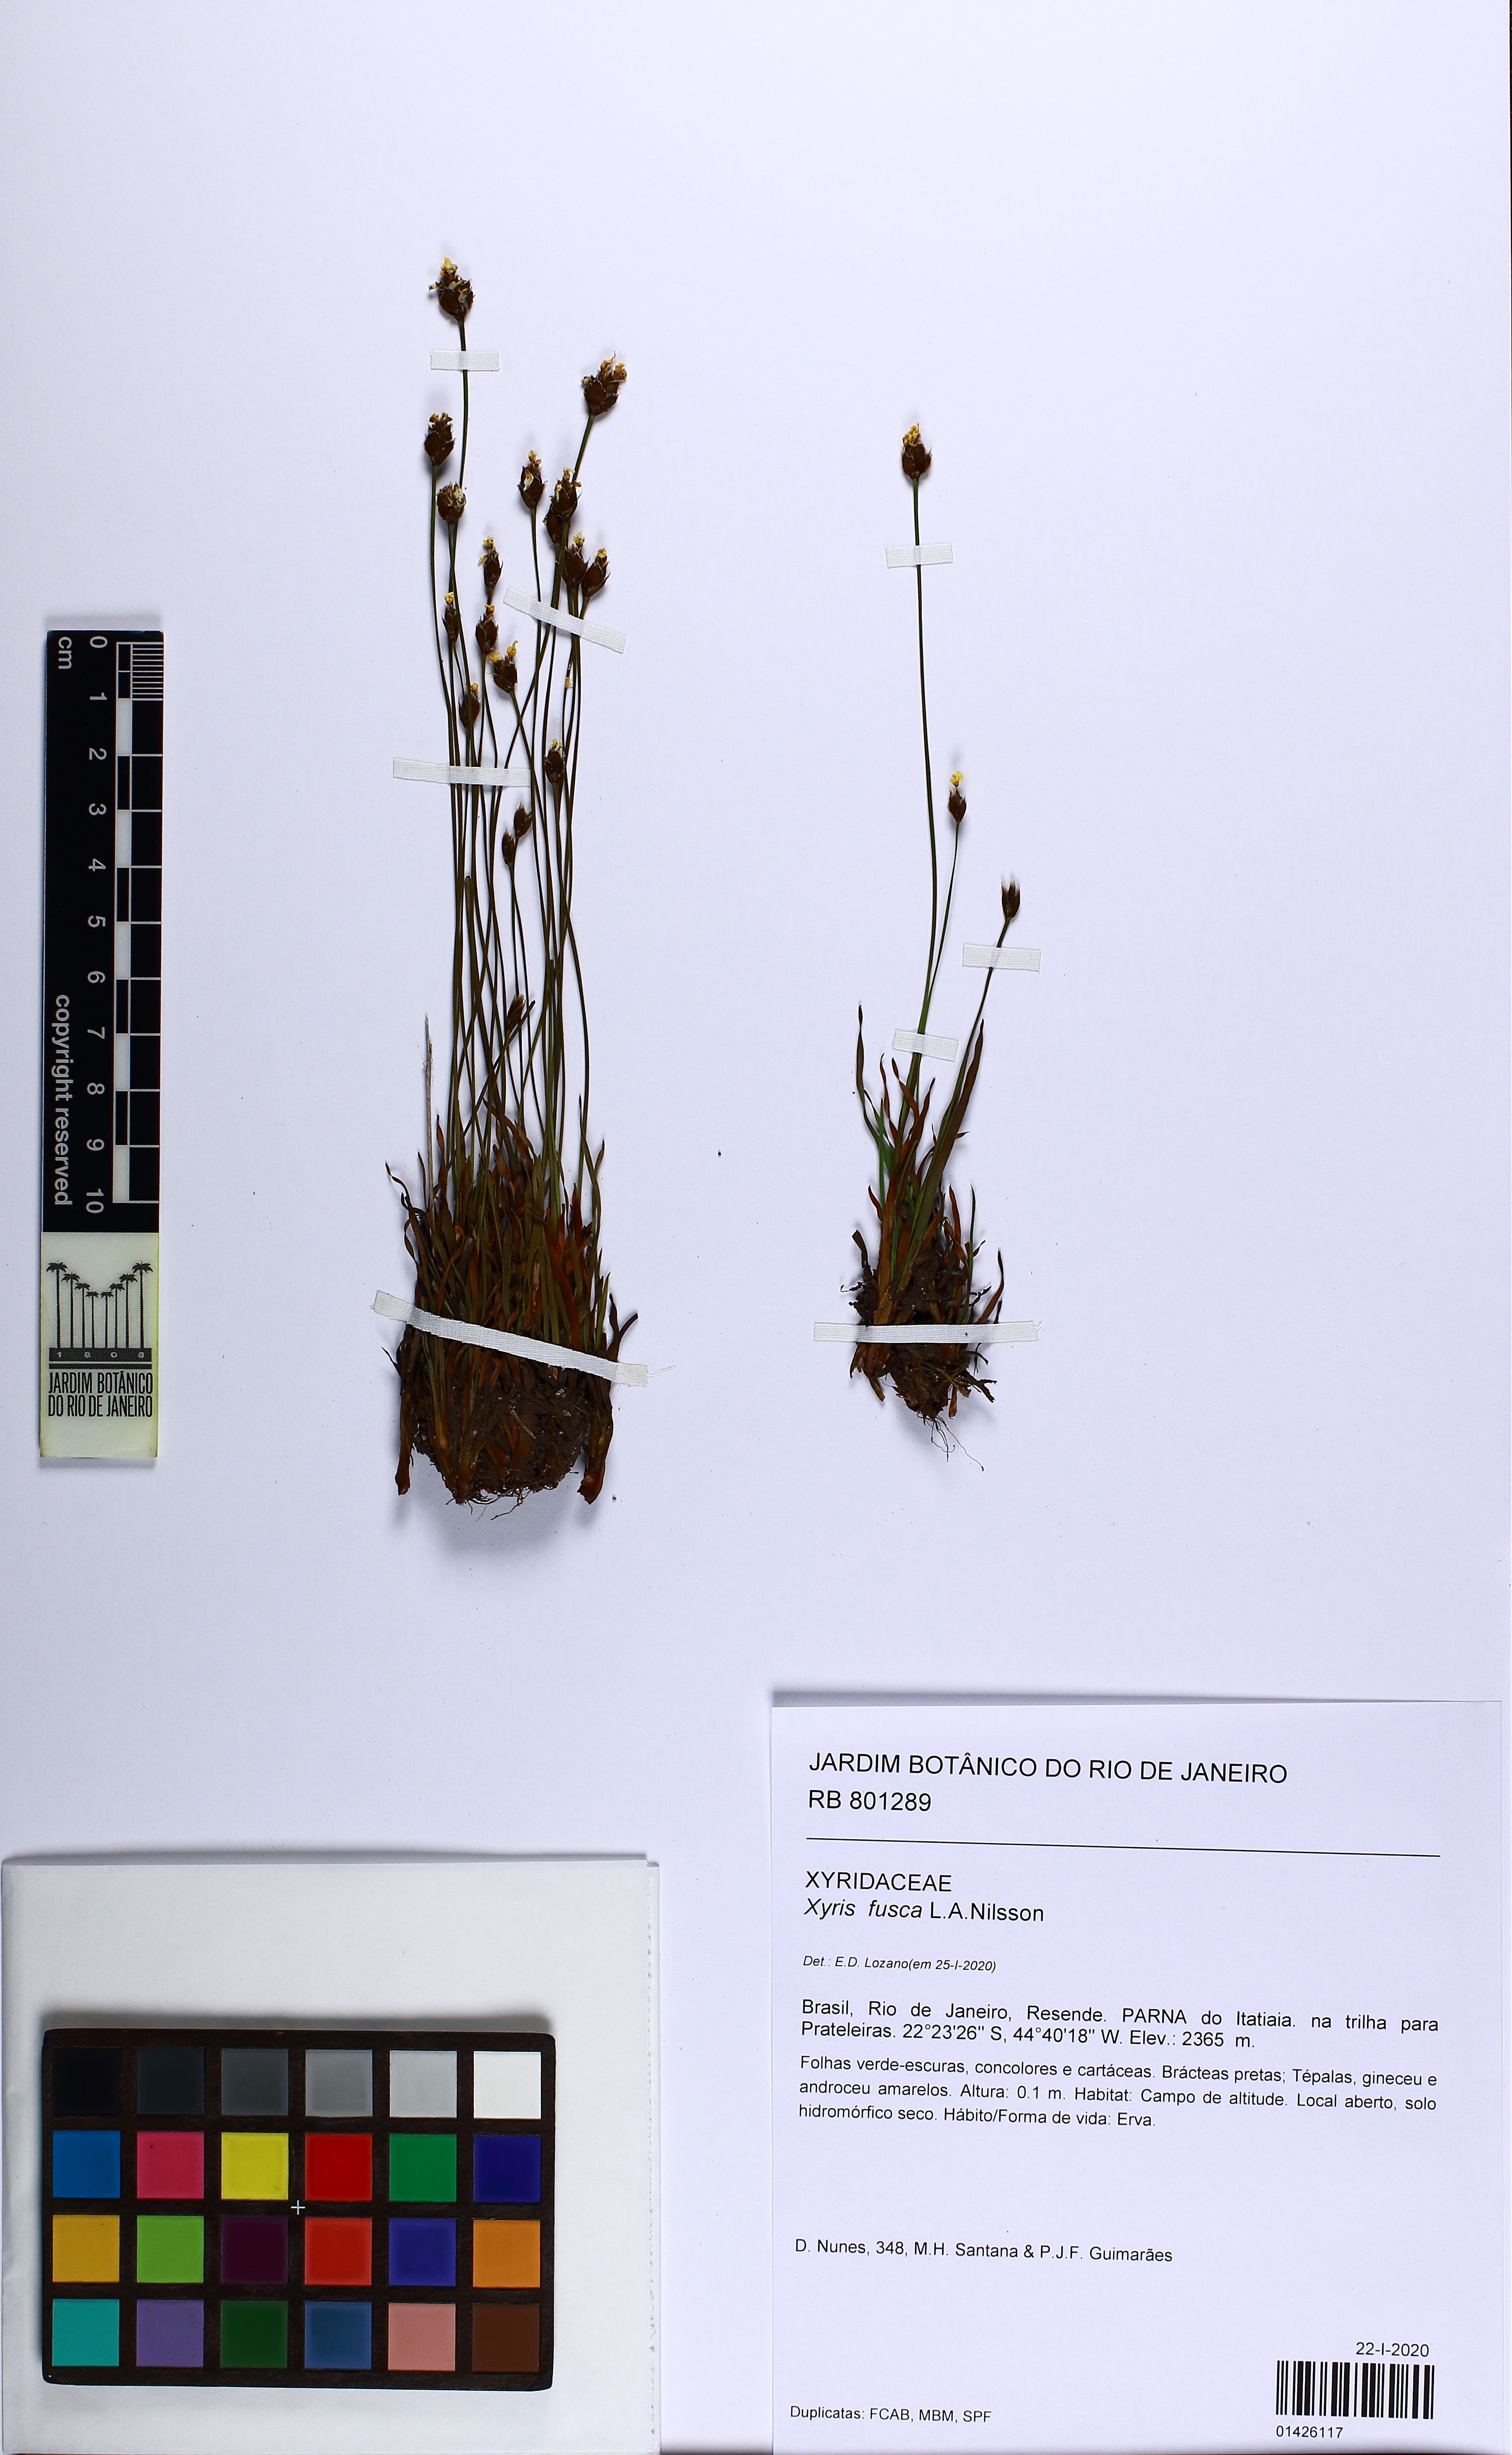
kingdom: Plantae
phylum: Tracheophyta
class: Liliopsida
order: Poales
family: Xyridaceae
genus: Xyris
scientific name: Xyris fusca
